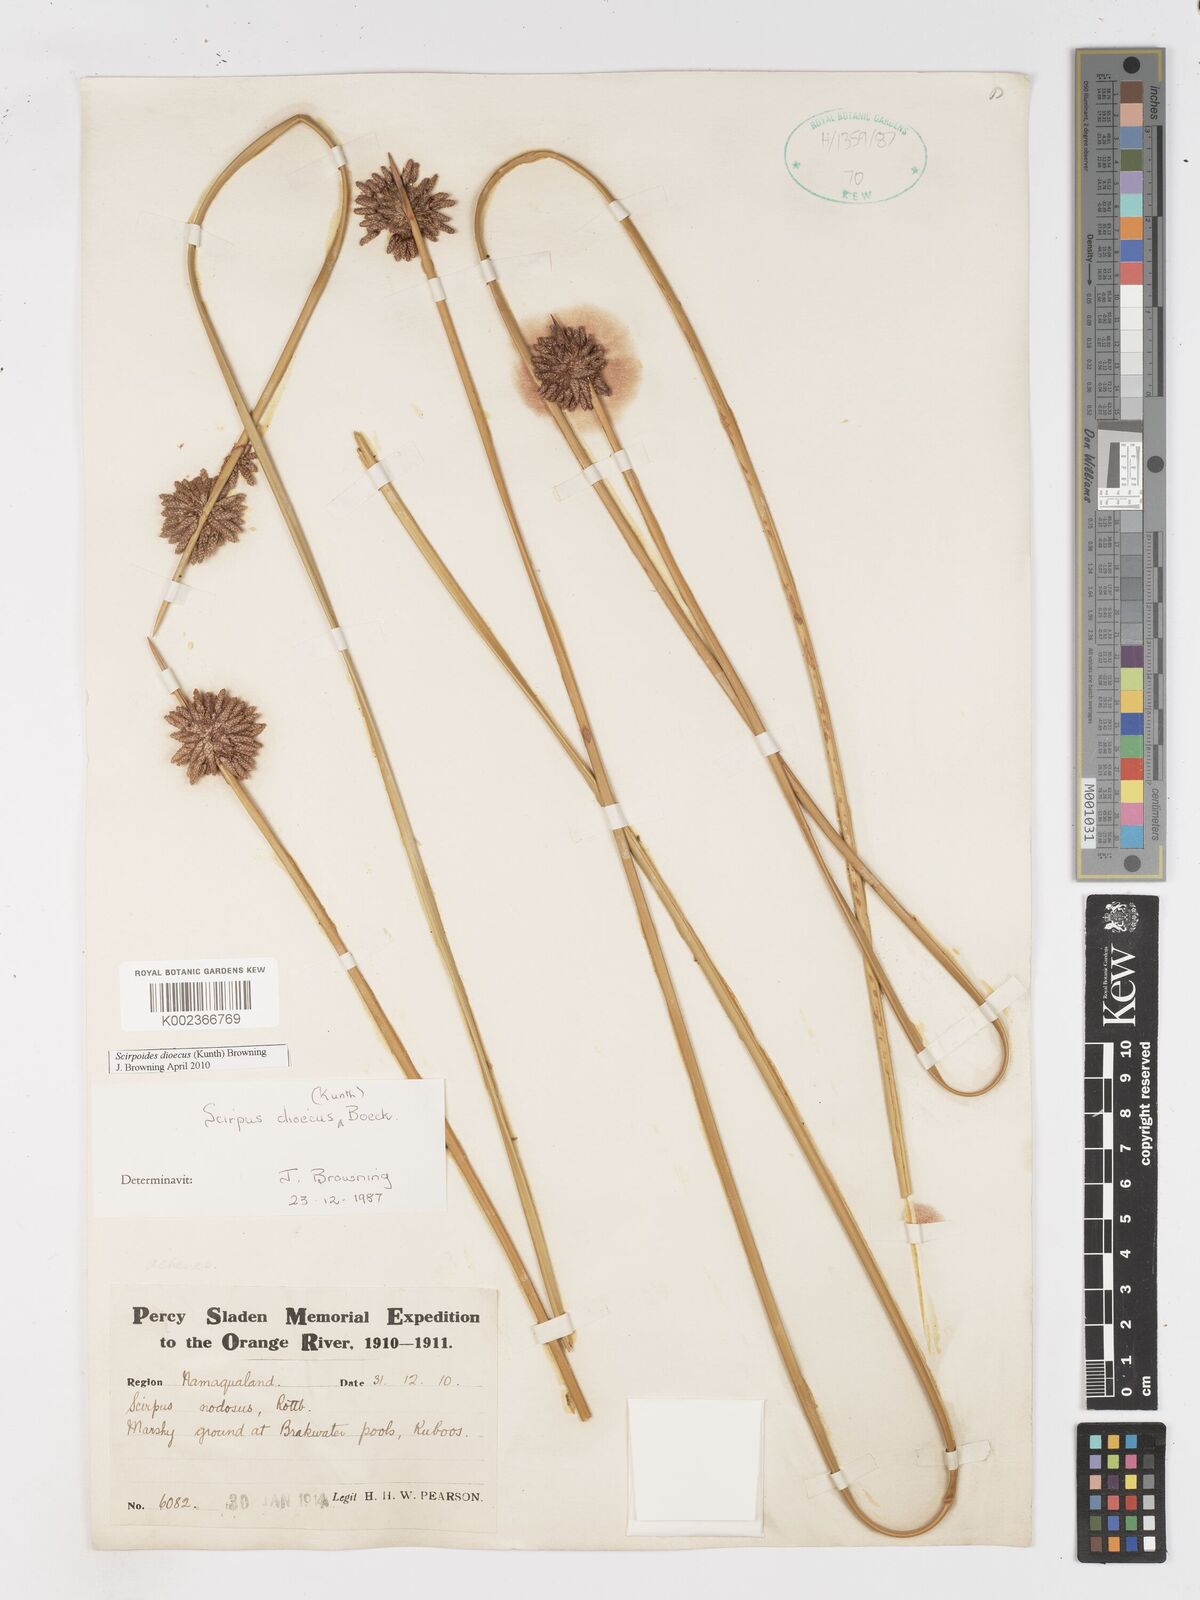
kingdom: Plantae
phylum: Tracheophyta
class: Liliopsida
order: Poales
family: Cyperaceae
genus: Afroscirpoides
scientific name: Afroscirpoides dioeca
